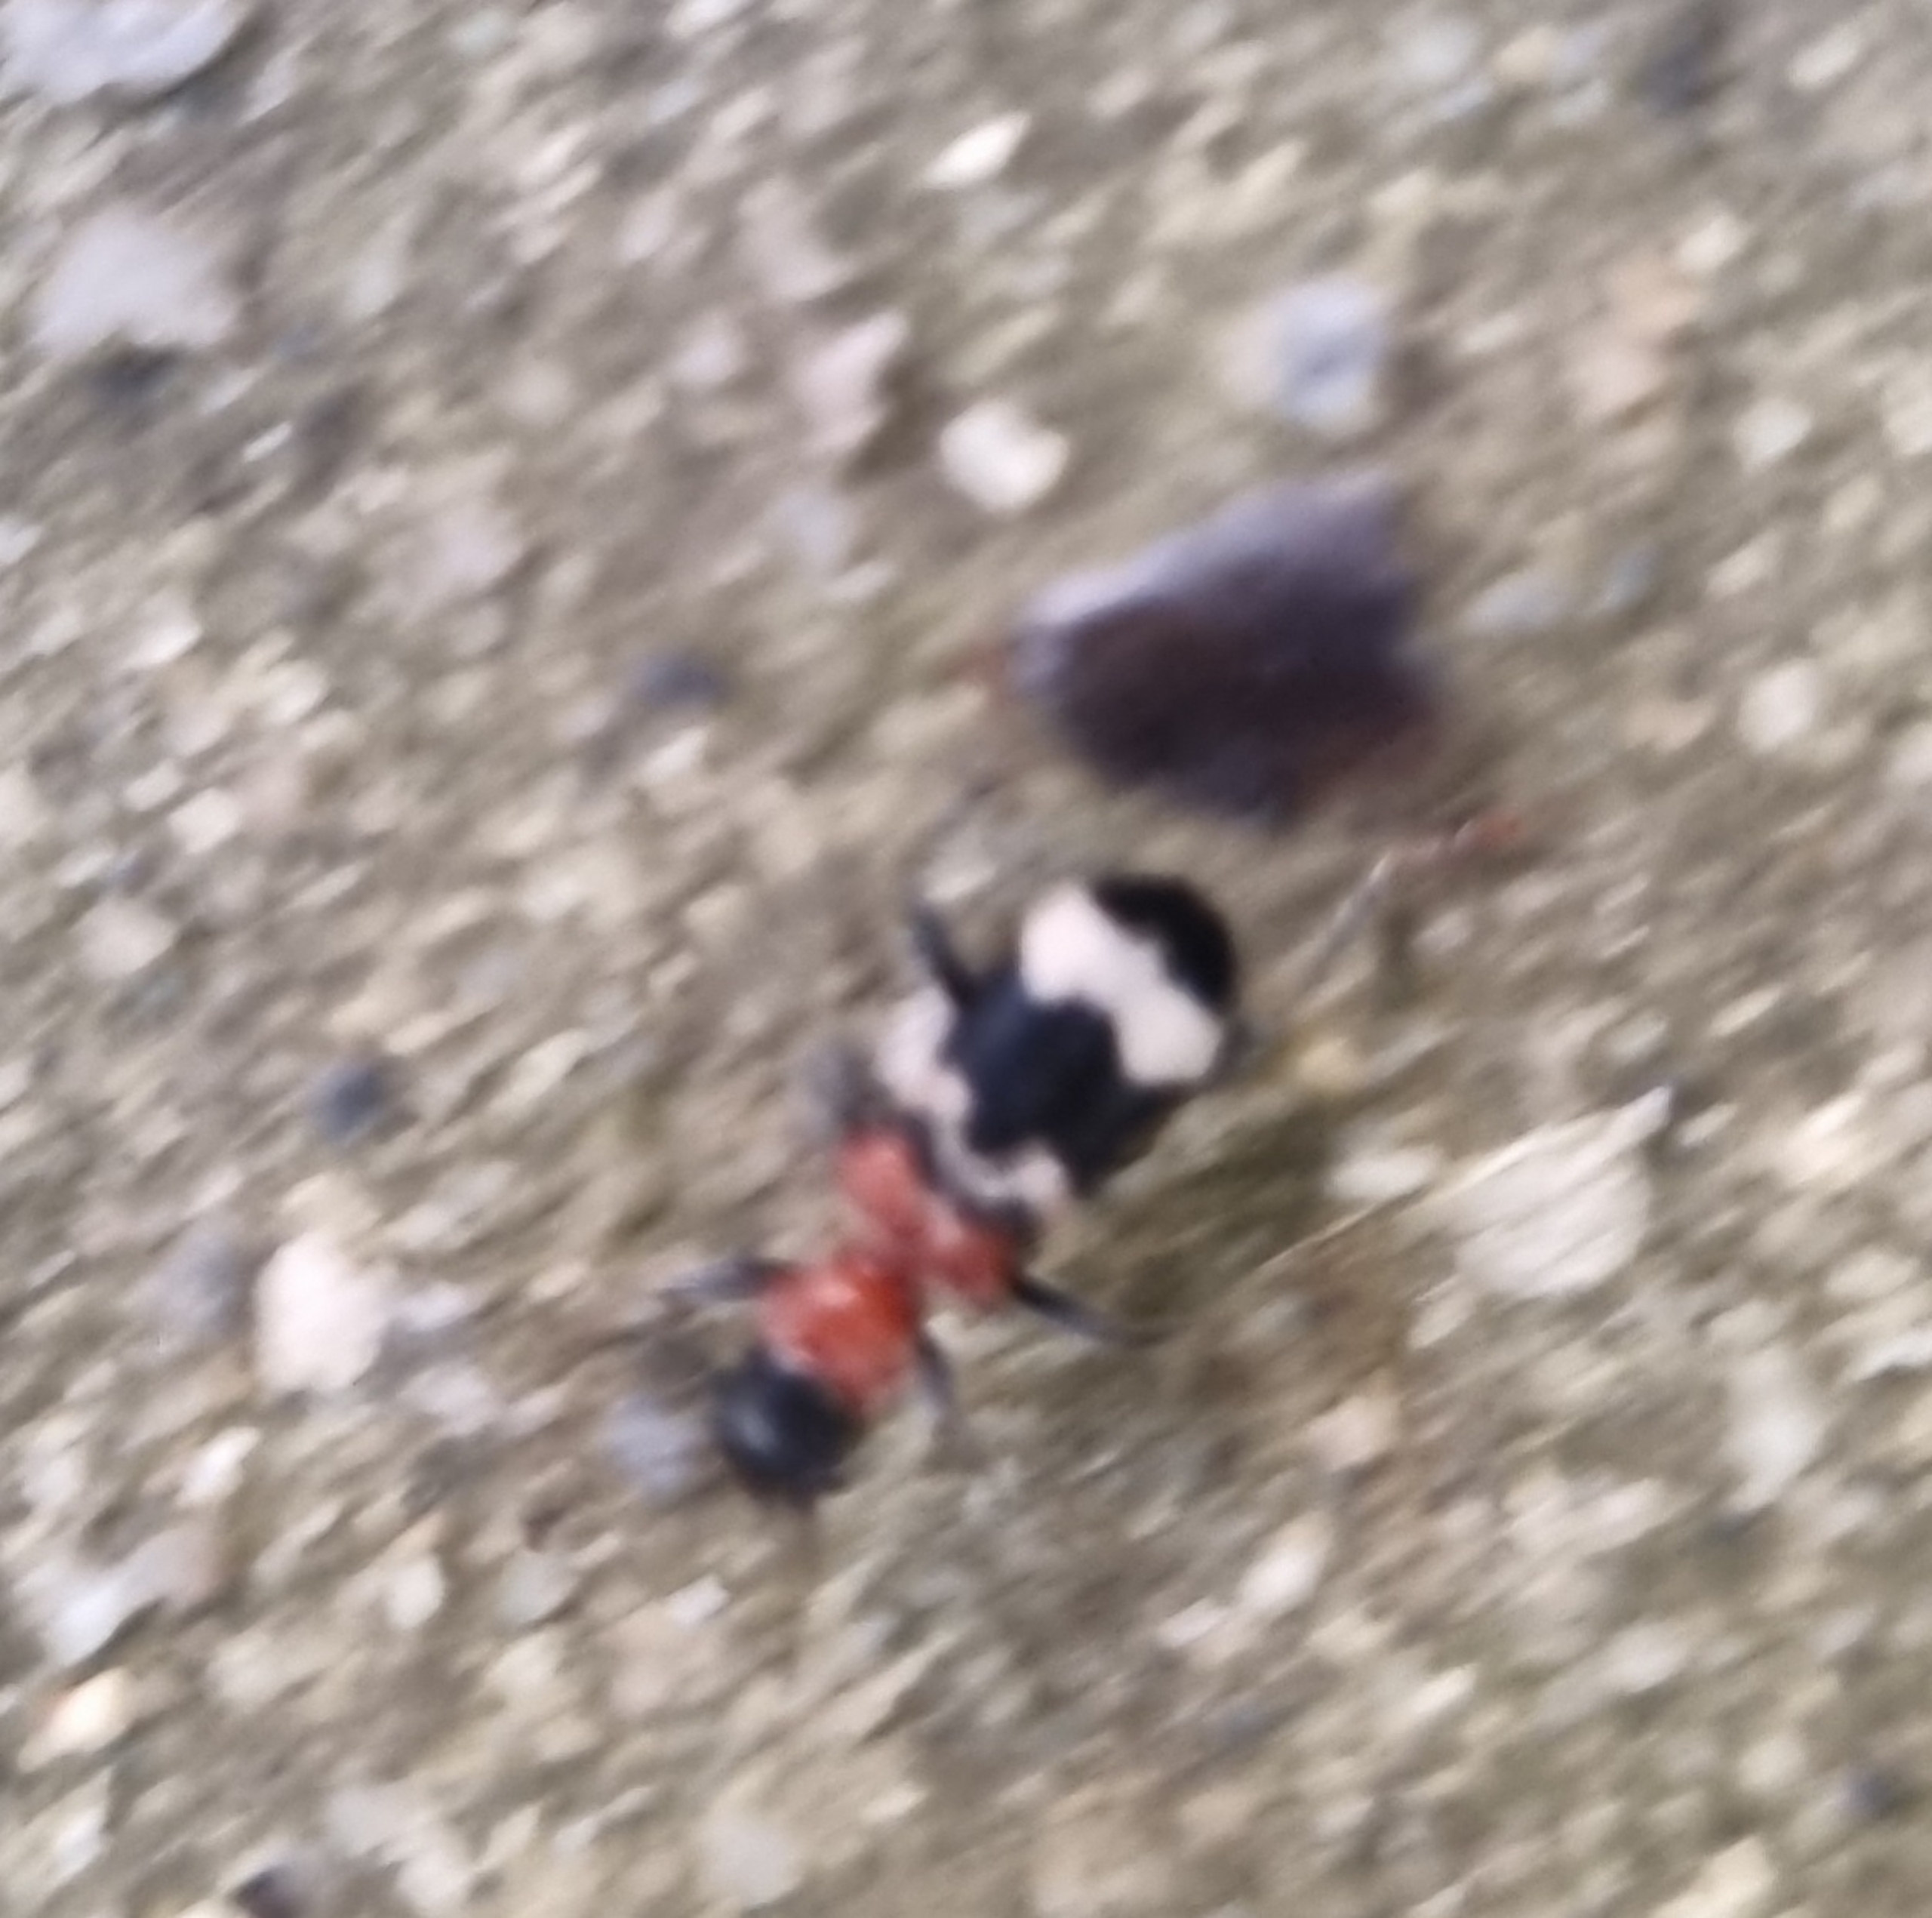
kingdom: Animalia
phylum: Arthropoda
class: Insecta
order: Coleoptera
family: Cleridae
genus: Thanasimus
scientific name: Thanasimus formicarius
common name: Myrebille
